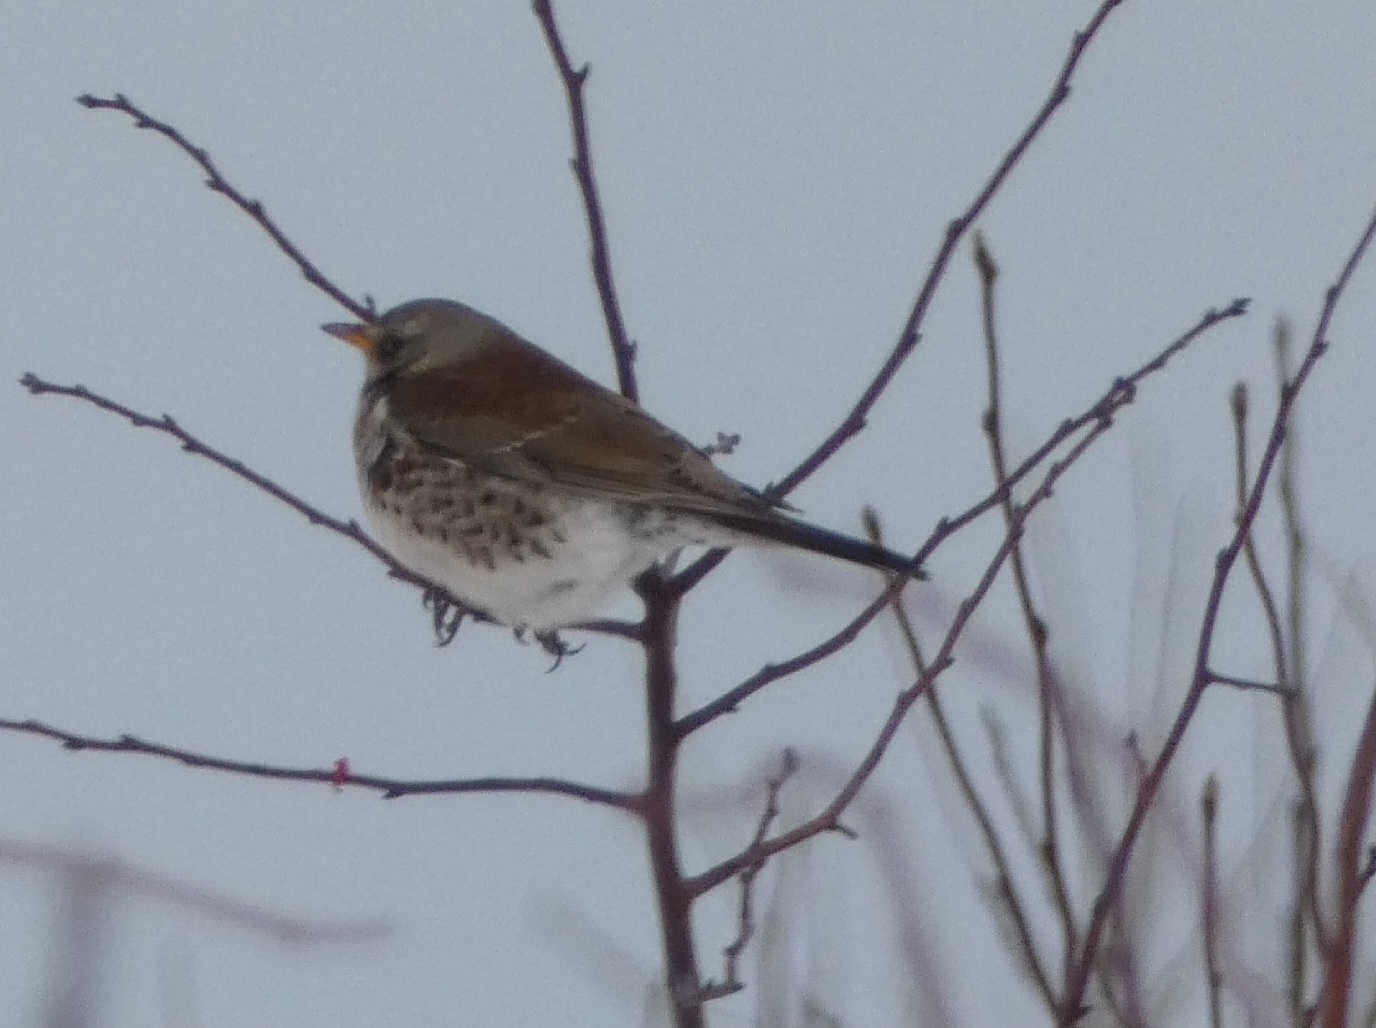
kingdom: Animalia
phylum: Chordata
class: Aves
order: Passeriformes
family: Turdidae
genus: Turdus
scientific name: Turdus pilaris
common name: Sjagger
